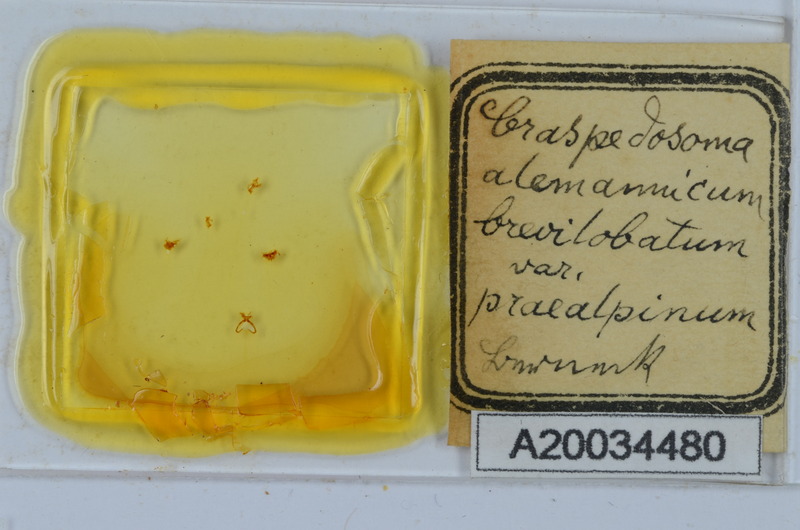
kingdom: Animalia
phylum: Arthropoda
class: Diplopoda
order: Chordeumatida
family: Craspedosomatidae
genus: Craspedosoma
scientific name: Craspedosoma rawlinsii
